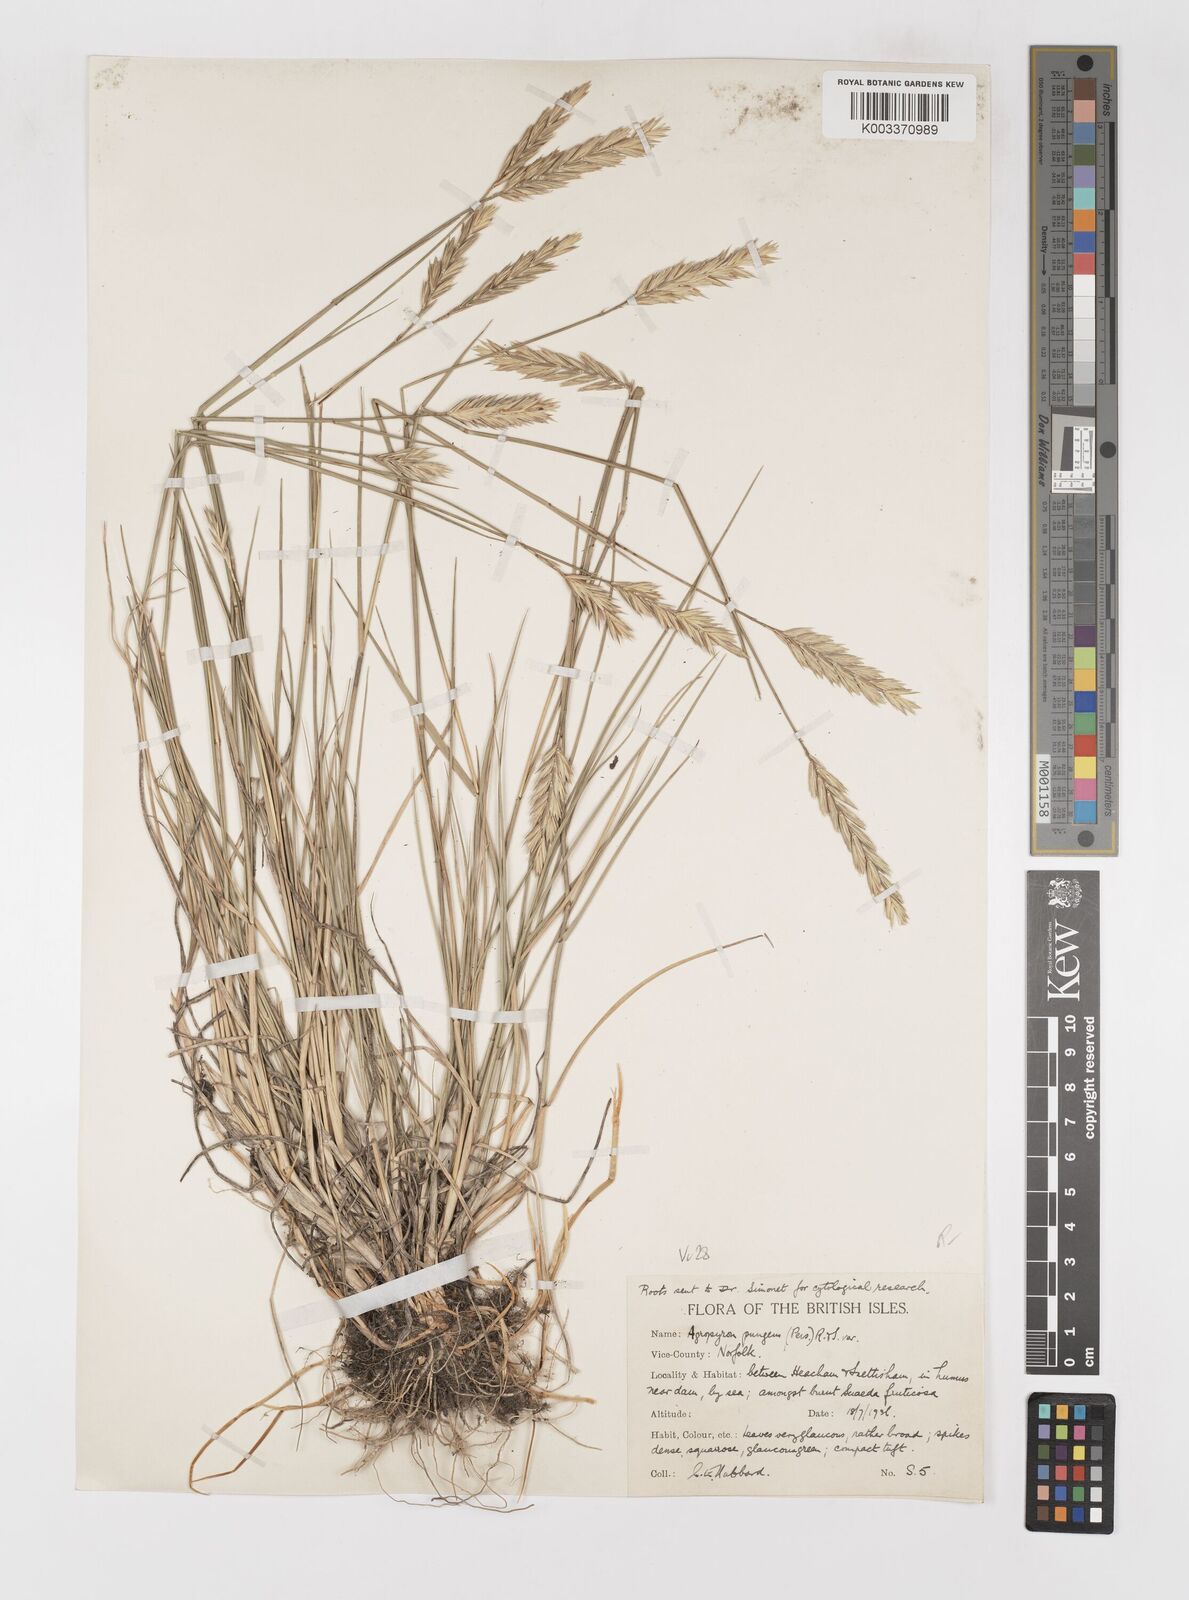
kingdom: Plantae
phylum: Tracheophyta
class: Liliopsida
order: Poales
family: Poaceae
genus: Elymus
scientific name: Elymus repens
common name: Quackgrass
